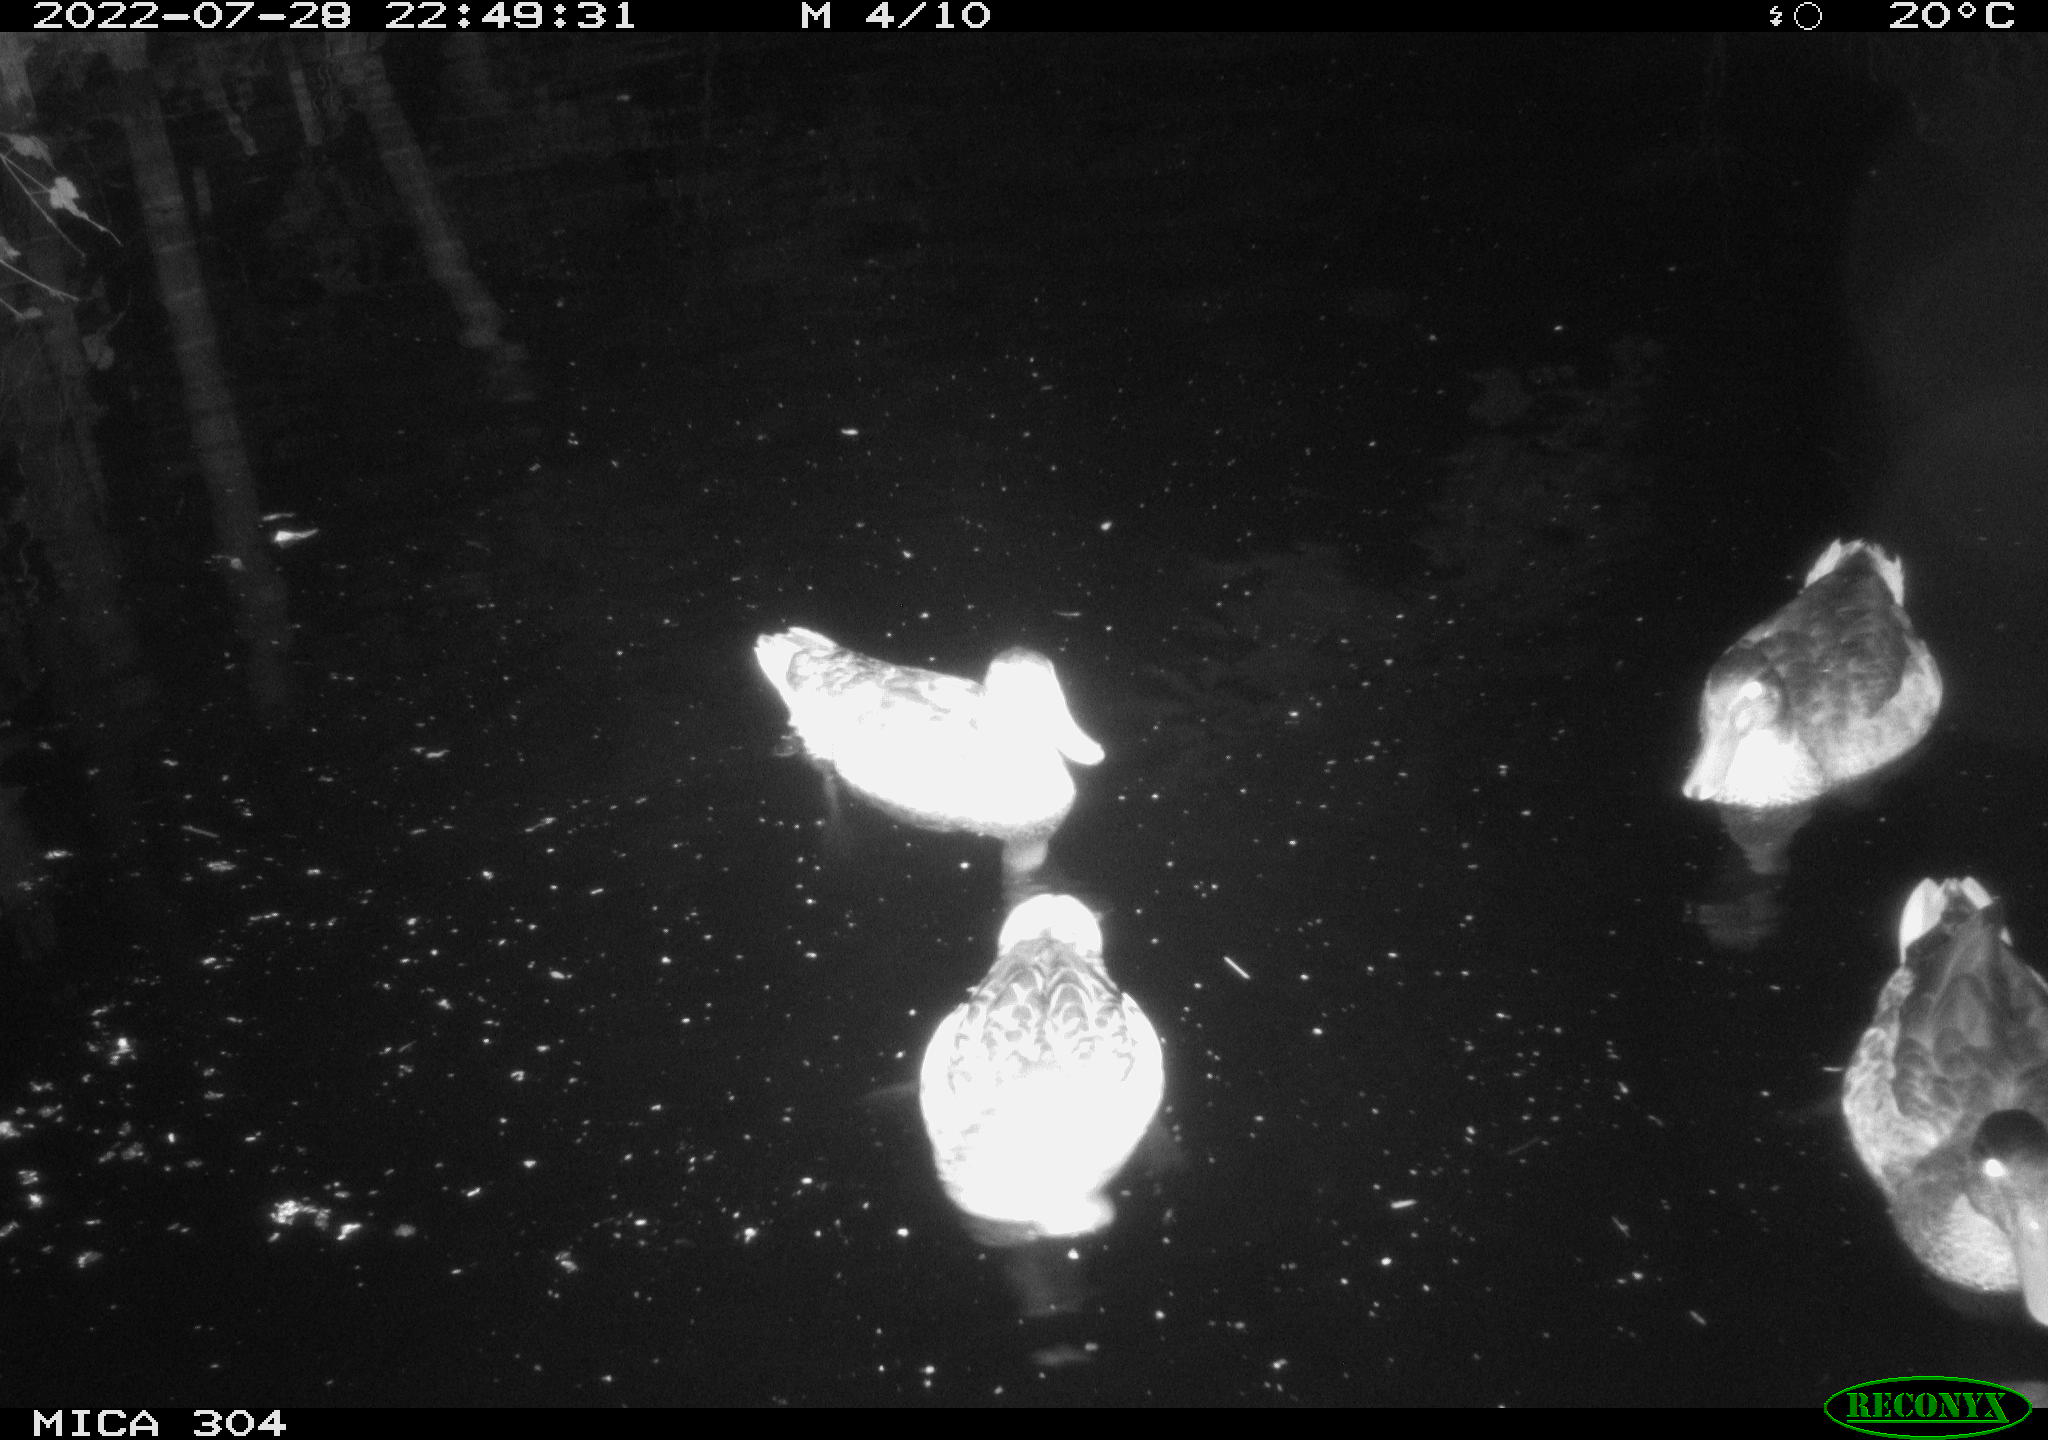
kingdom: Animalia
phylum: Chordata
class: Aves
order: Anseriformes
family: Anatidae
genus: Anas
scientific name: Anas platyrhynchos
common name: Mallard
